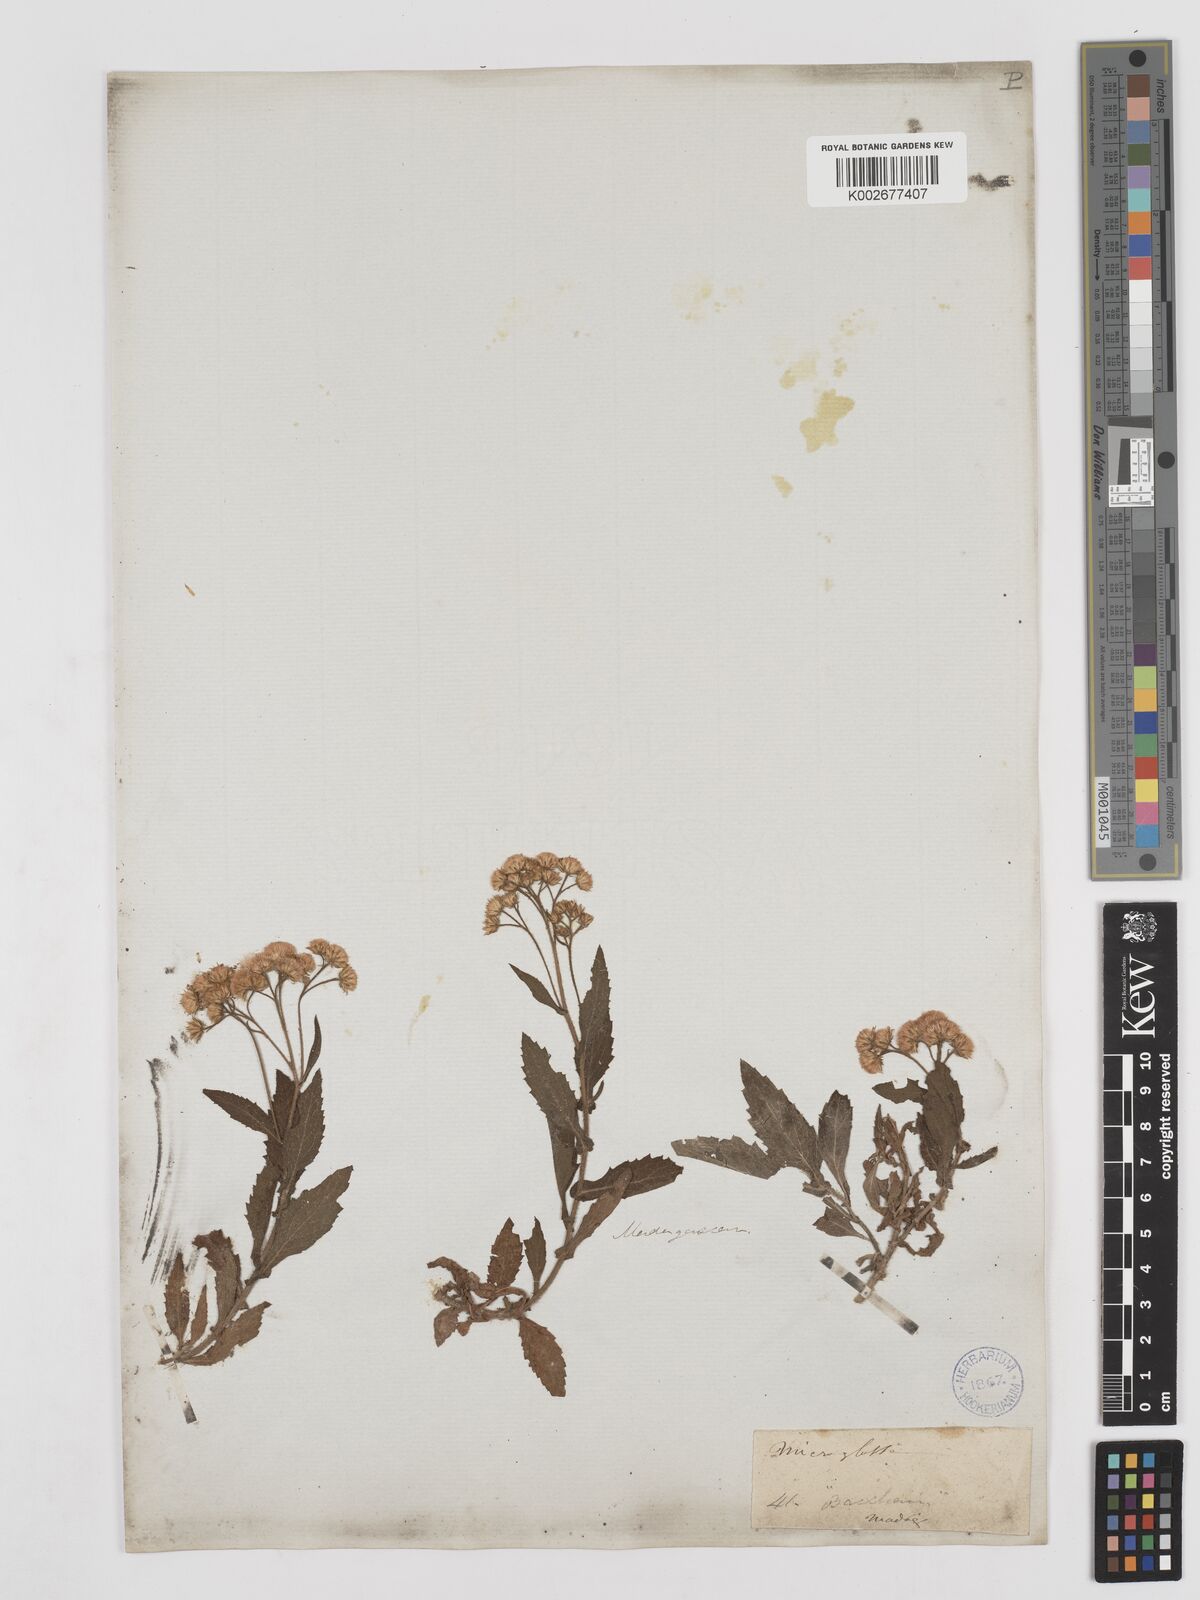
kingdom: Plantae
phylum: Tracheophyta
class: Magnoliopsida
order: Asterales
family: Asteraceae
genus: Psiadia
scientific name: Psiadia hispida
